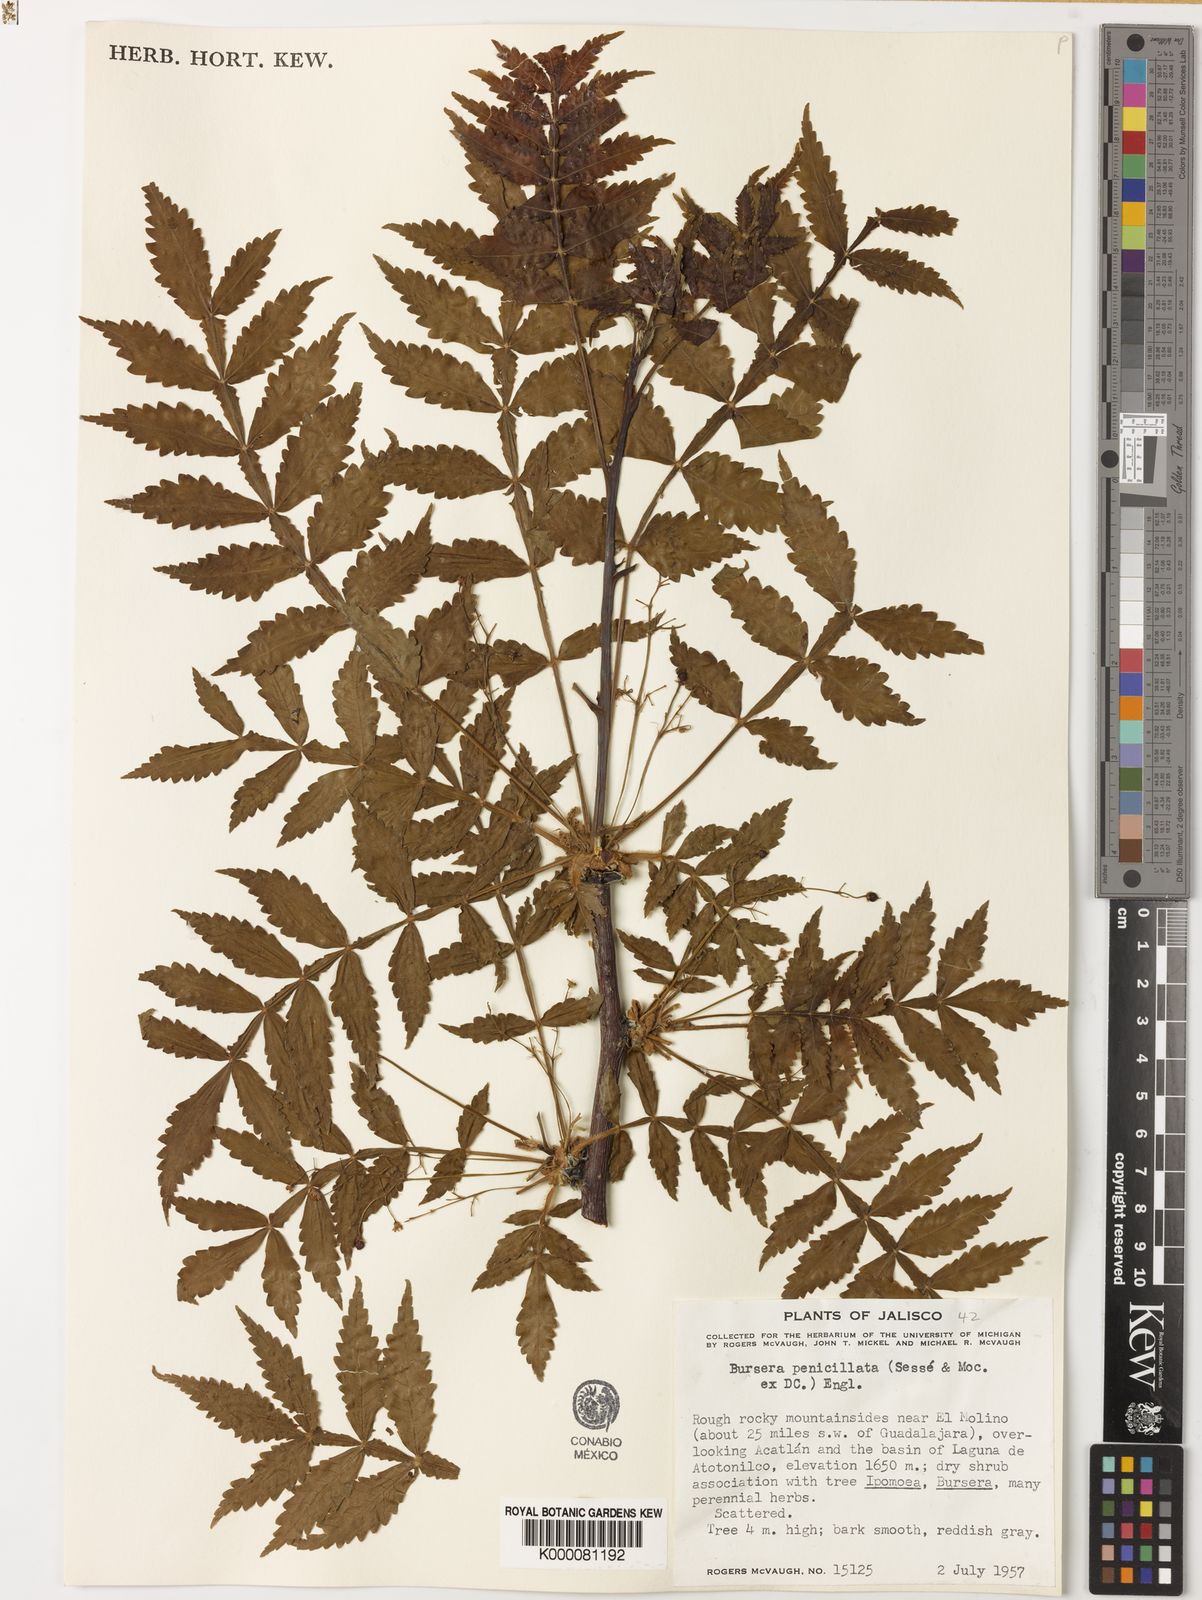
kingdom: Plantae
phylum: Tracheophyta
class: Magnoliopsida
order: Sapindales
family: Burseraceae
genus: Bursera
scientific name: Bursera penicillata
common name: Indian-lavender
